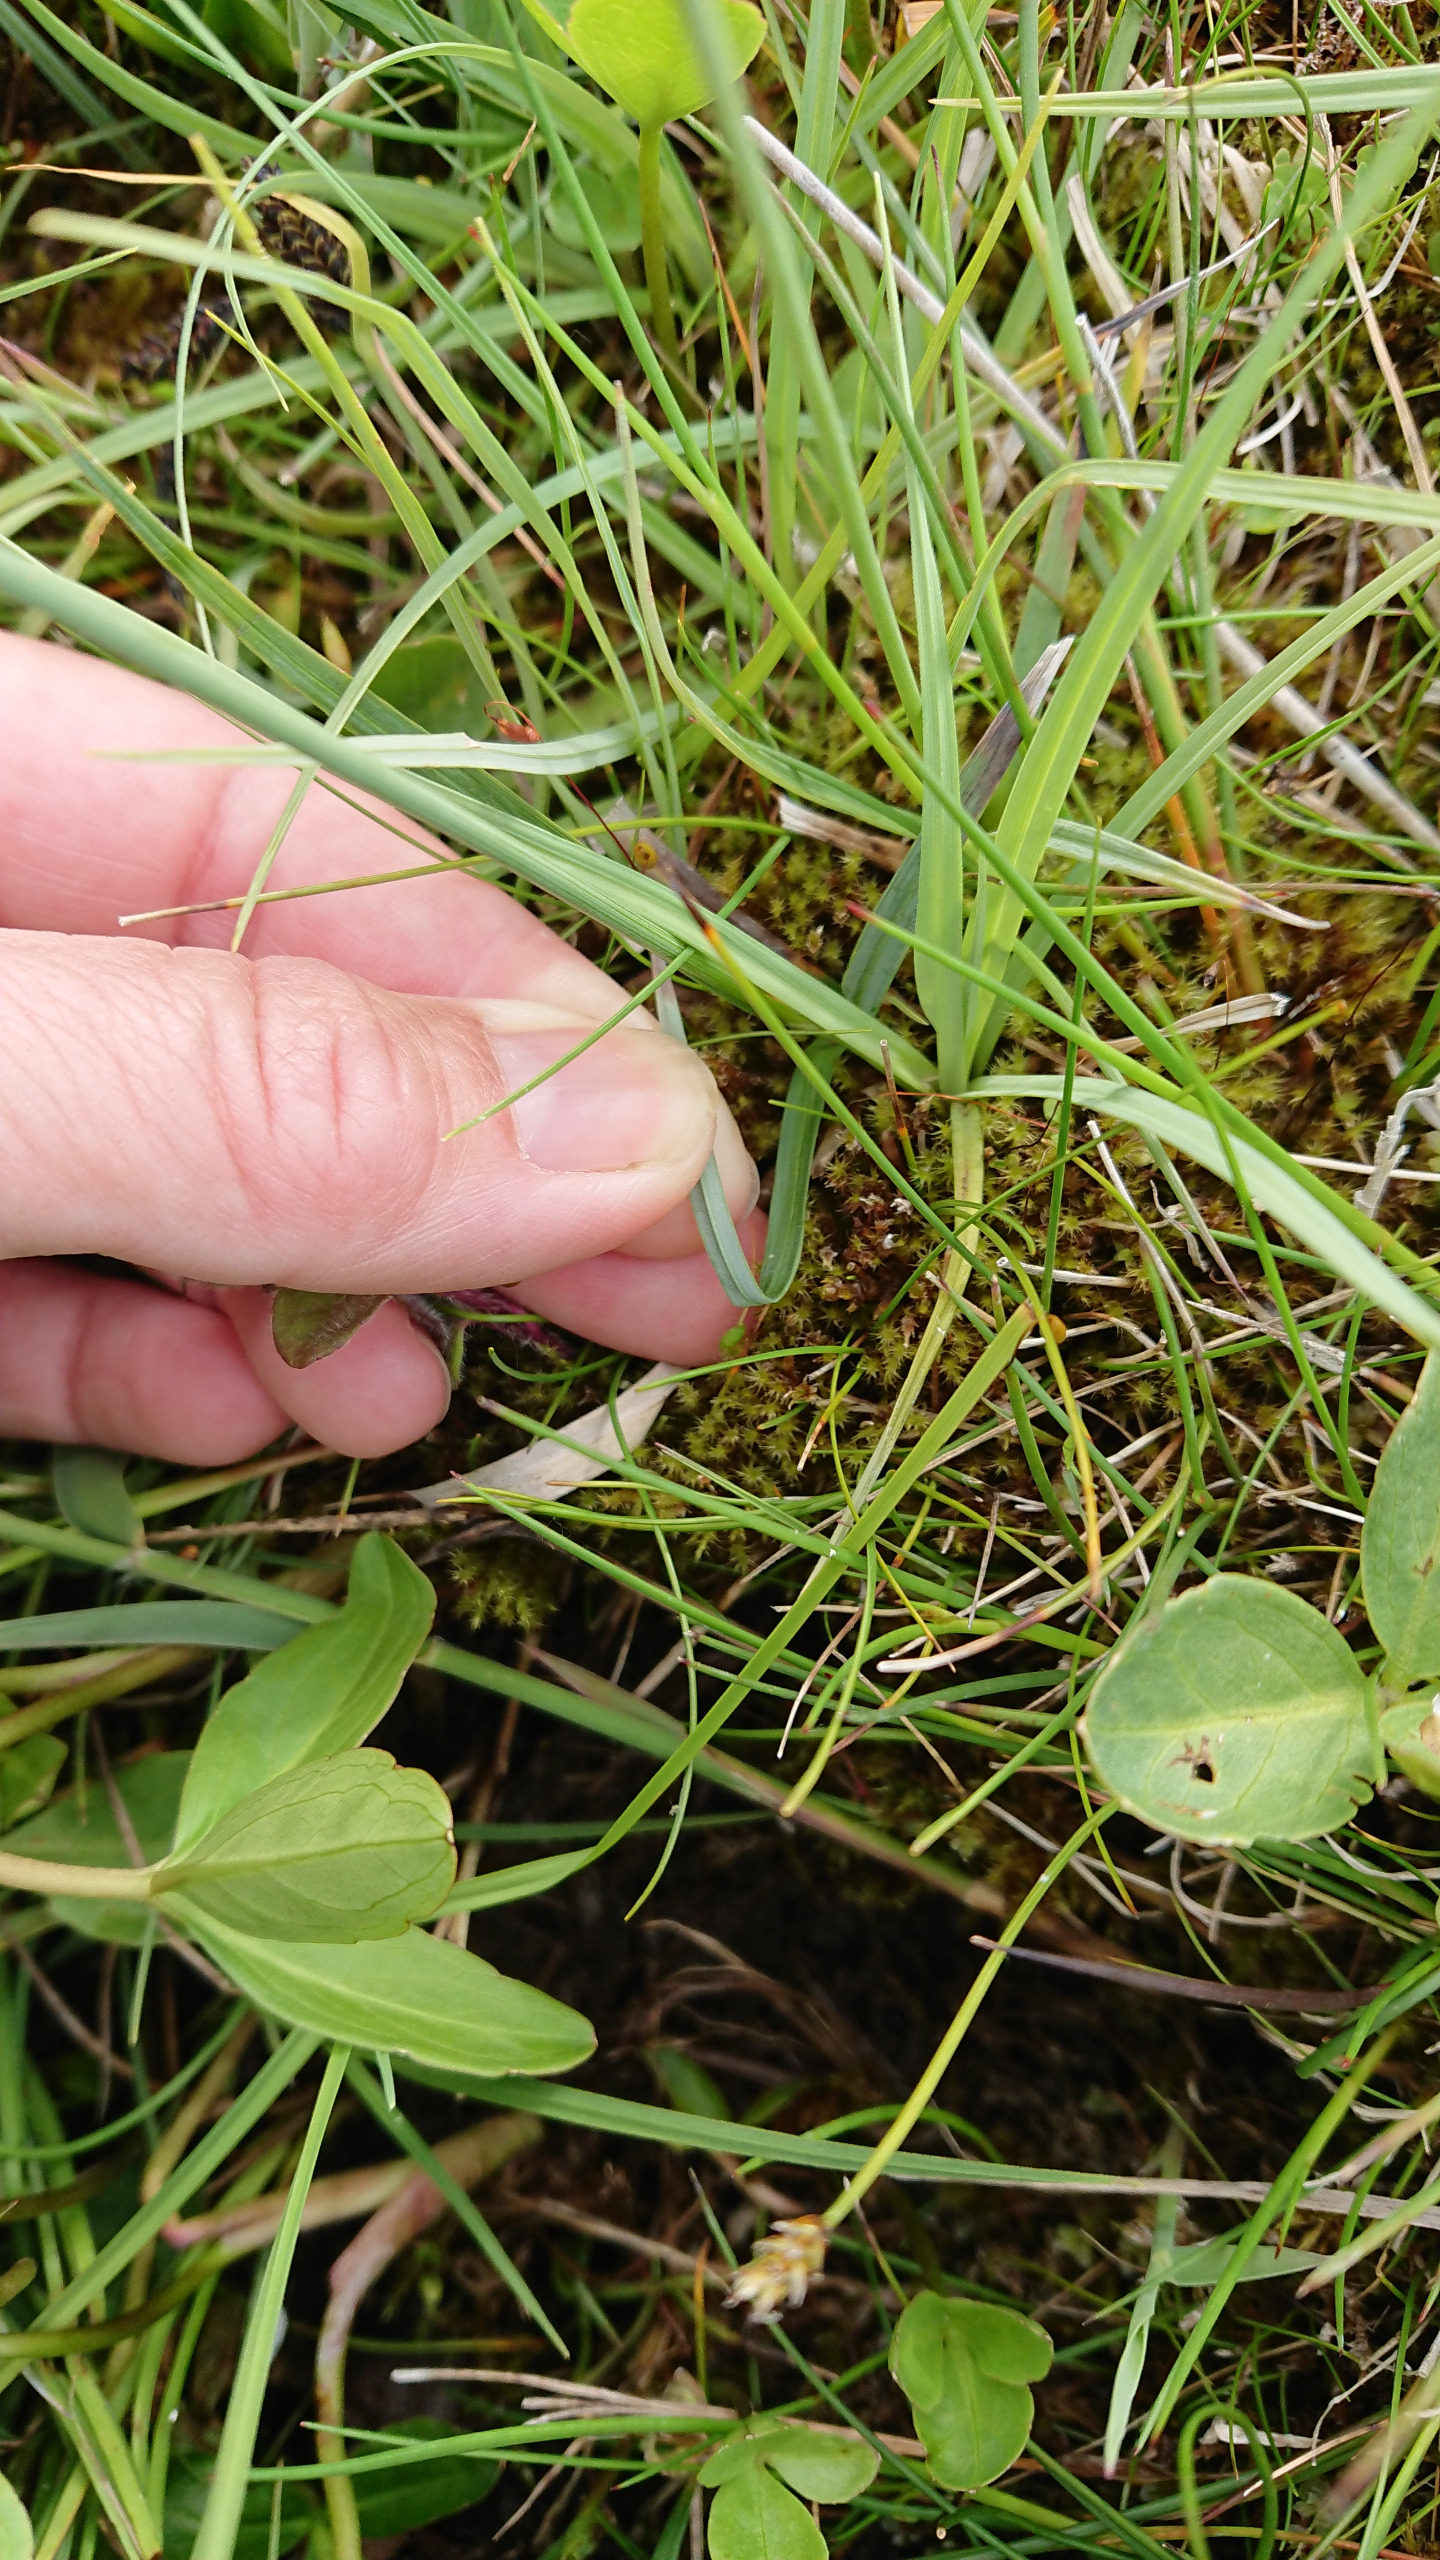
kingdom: Plantae
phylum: Tracheophyta
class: Liliopsida
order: Poales
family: Cyperaceae
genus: Carex
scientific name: Carex flacca
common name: Blågrøn star
